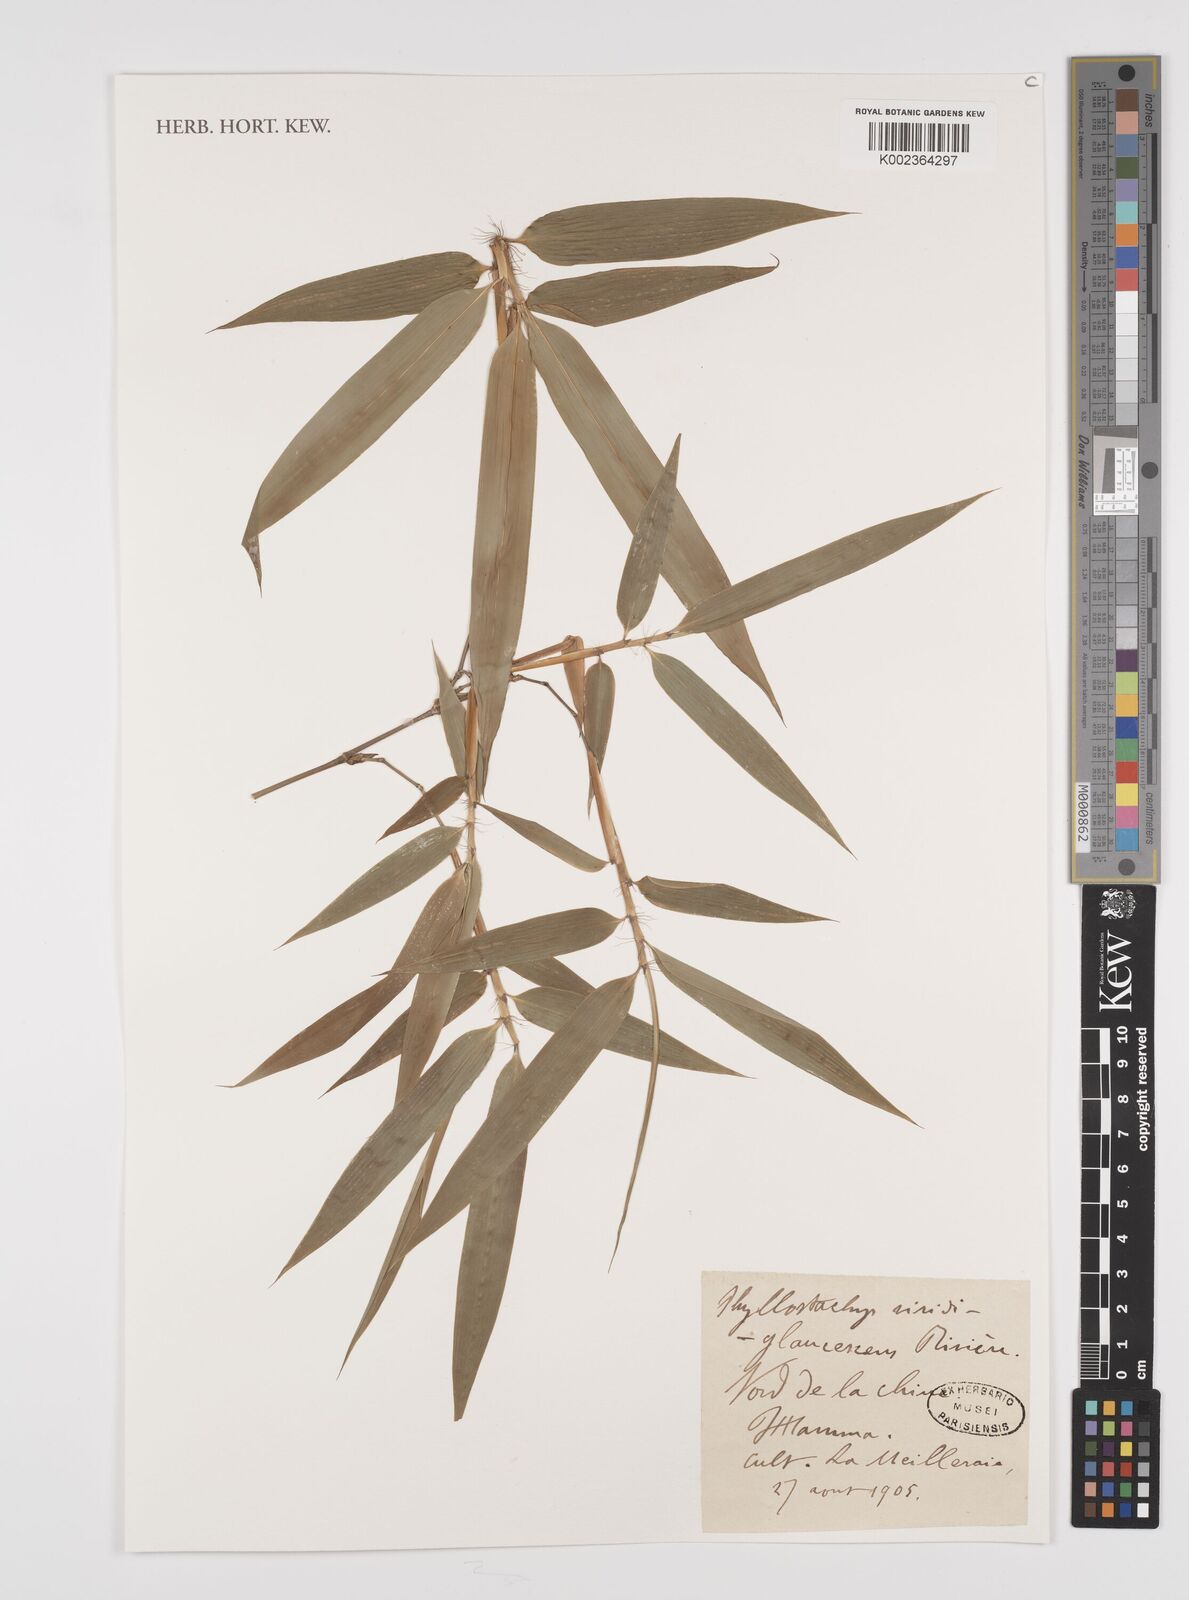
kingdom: Plantae
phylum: Tracheophyta
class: Liliopsida
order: Poales
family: Poaceae
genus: Phyllostachys
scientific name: Phyllostachys viridiglaucescens
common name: Greenwax golden bamboo
